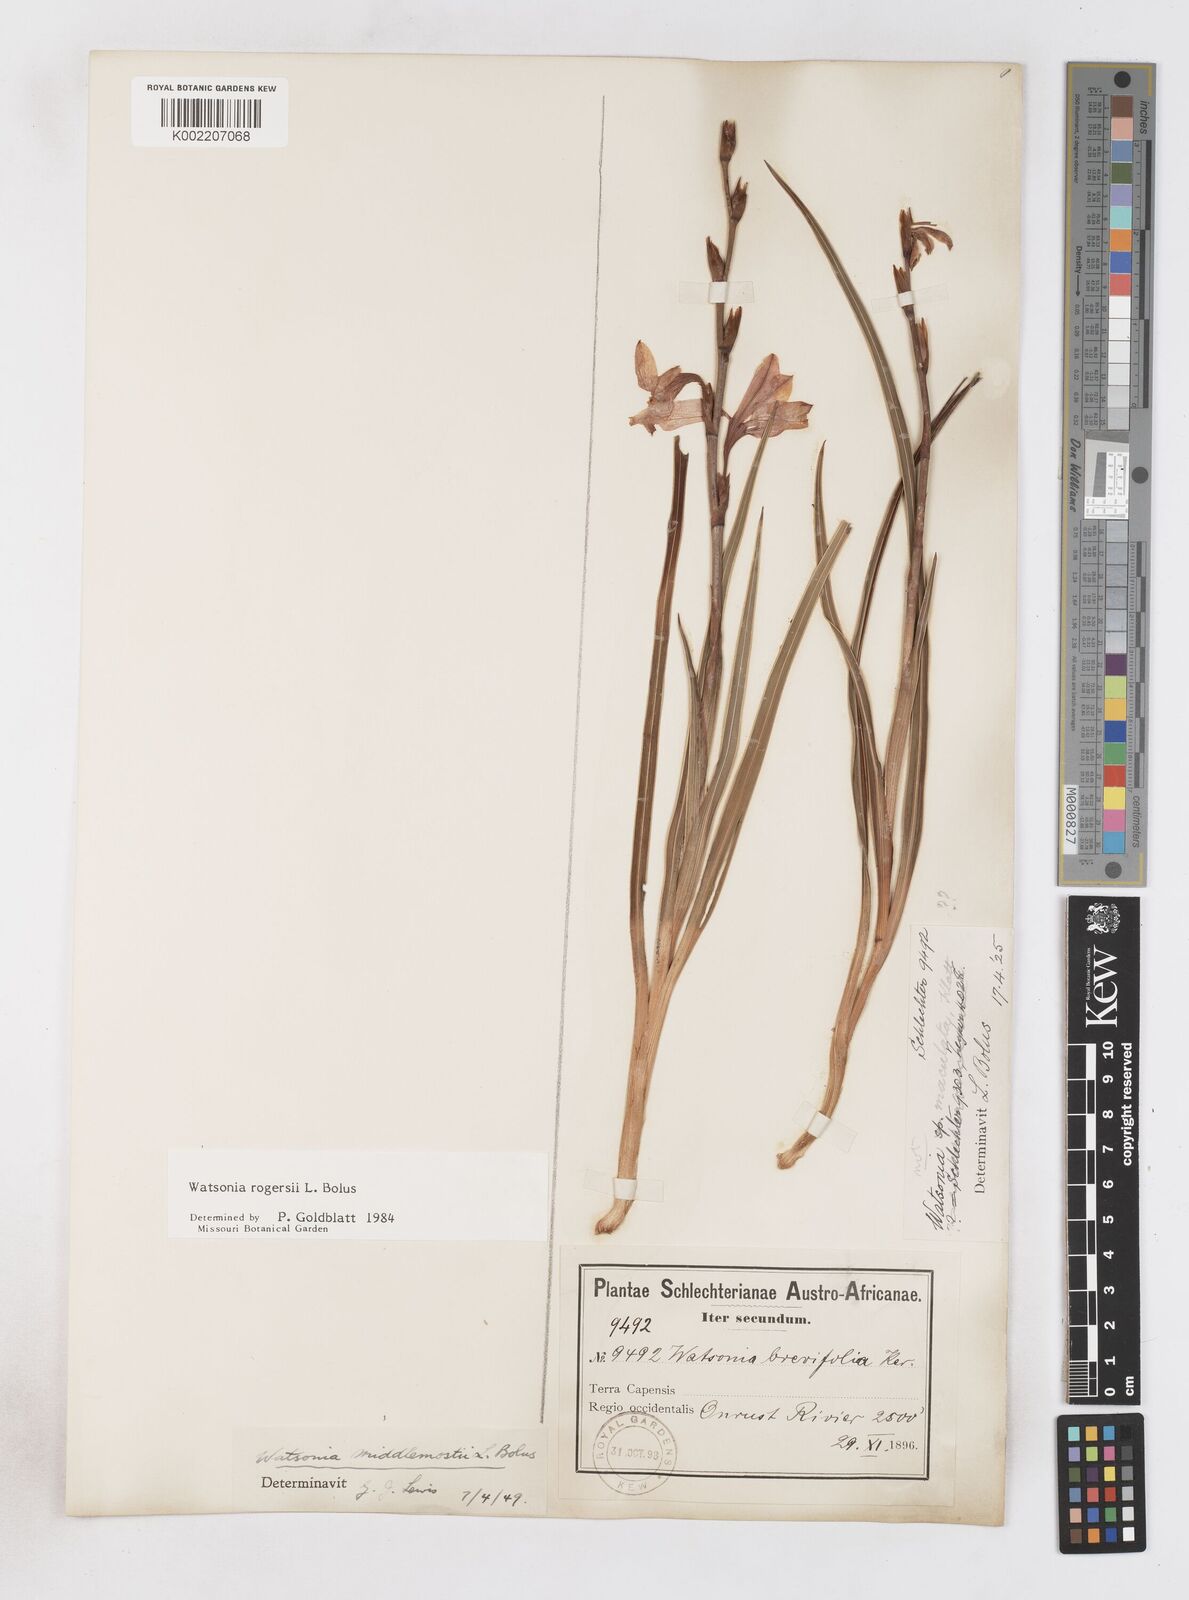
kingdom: Plantae
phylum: Tracheophyta
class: Liliopsida
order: Asparagales
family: Iridaceae
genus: Watsonia
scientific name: Watsonia rogersii
